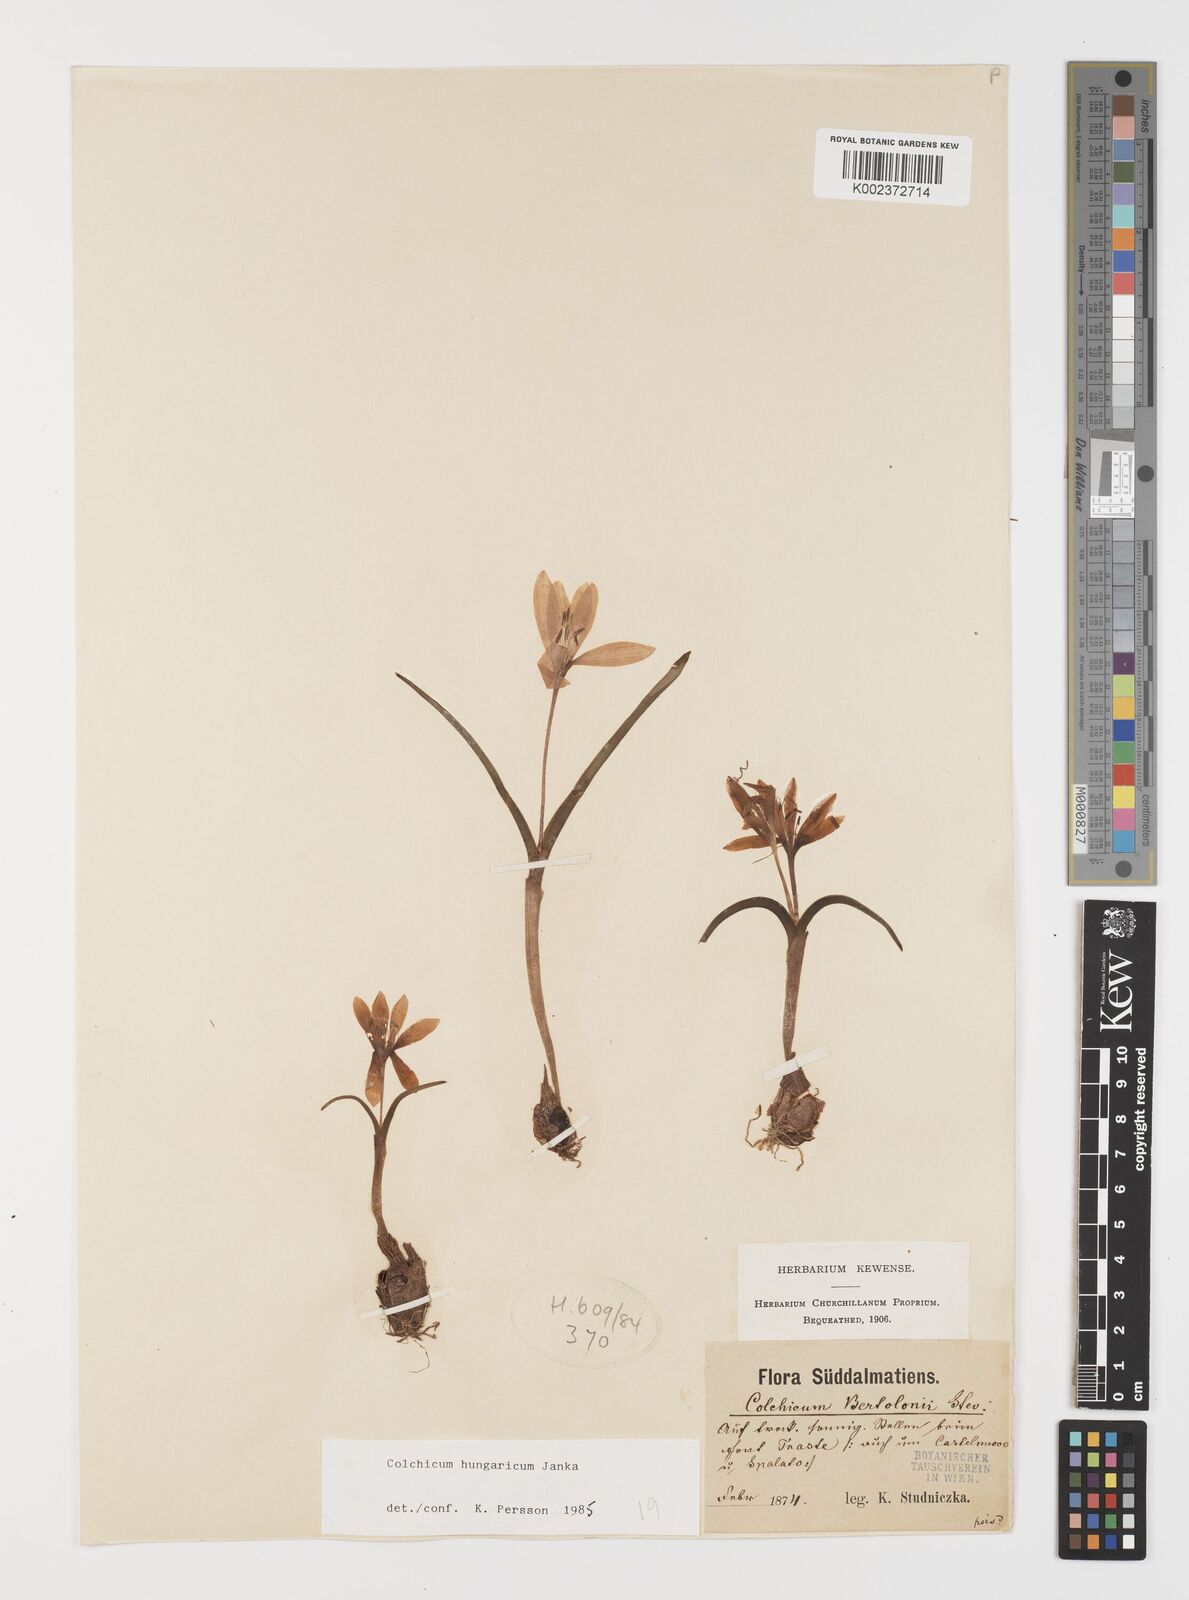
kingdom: Plantae
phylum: Tracheophyta
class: Liliopsida
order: Liliales
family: Colchicaceae
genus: Colchicum
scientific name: Colchicum hungaricum
